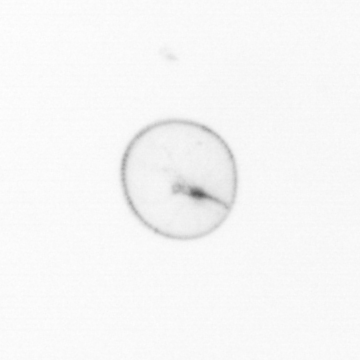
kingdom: Chromista
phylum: Myzozoa
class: Dinophyceae
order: Noctilucales
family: Noctilucaceae
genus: Noctiluca
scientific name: Noctiluca scintillans
